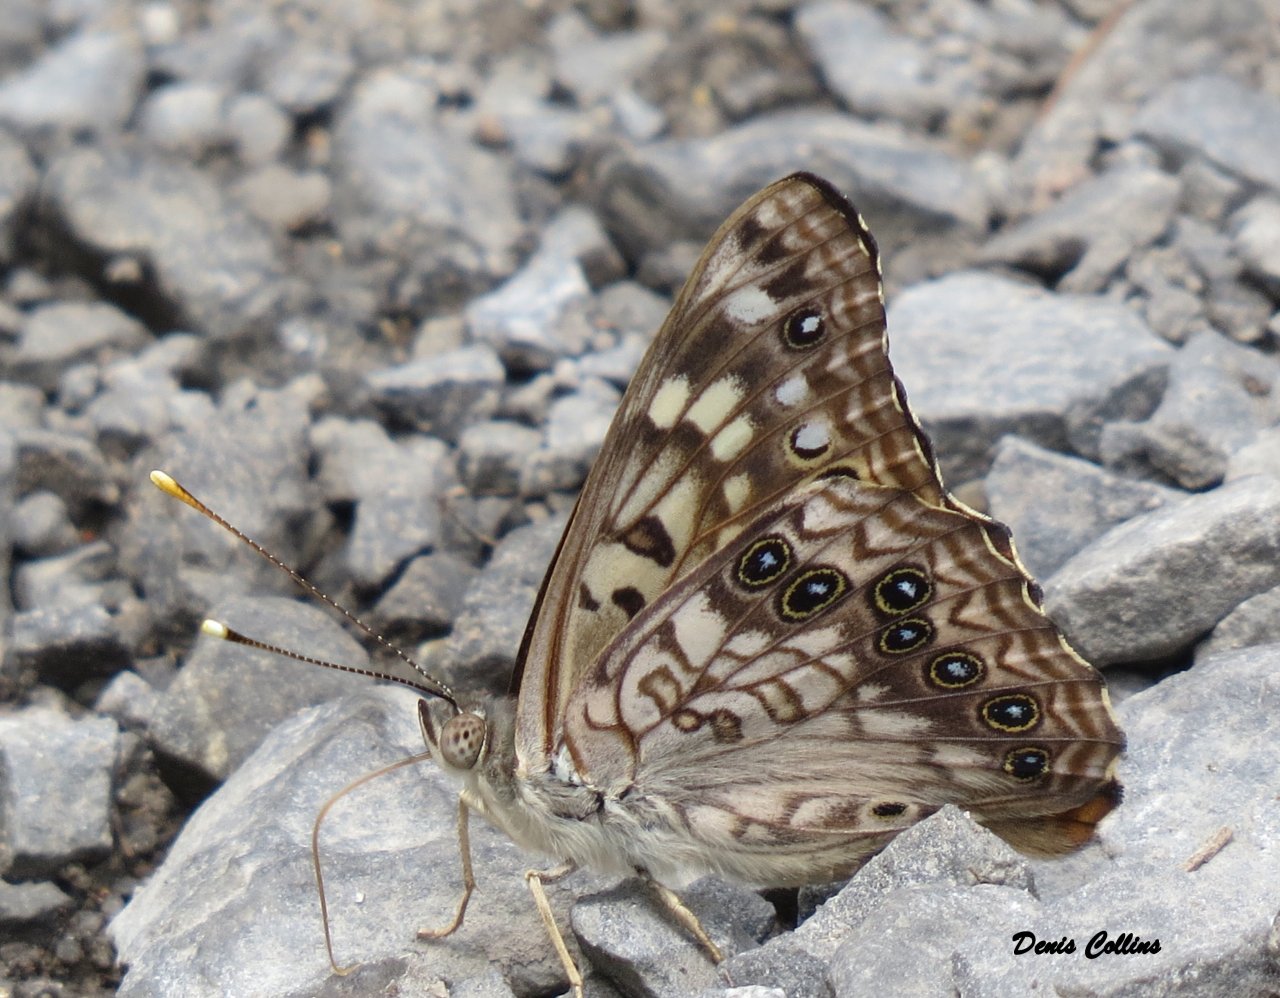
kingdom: Animalia
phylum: Arthropoda
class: Insecta
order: Lepidoptera
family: Nymphalidae
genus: Asterocampa
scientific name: Asterocampa celtis
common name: Hackberry Emperor
